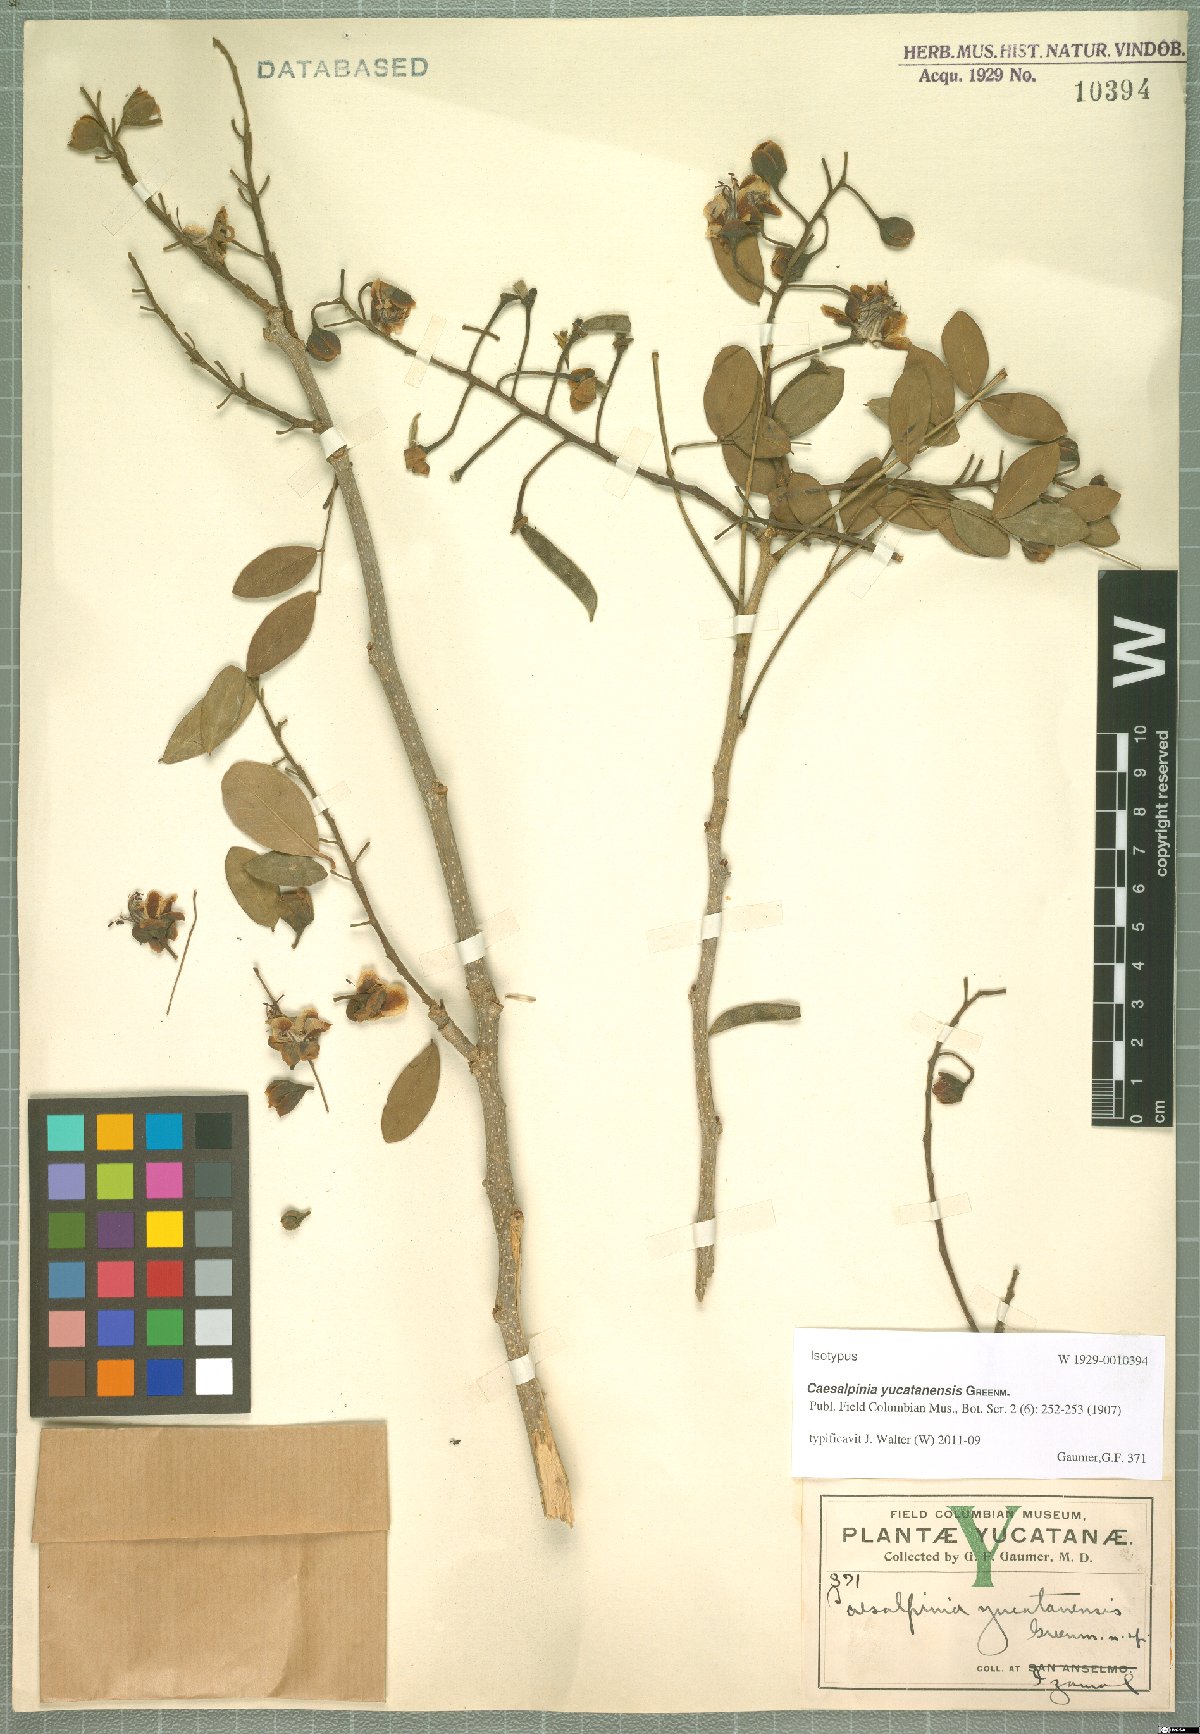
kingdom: Plantae
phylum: Tracheophyta
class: Magnoliopsida
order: Fabales
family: Fabaceae
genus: Erythrostemon
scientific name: Erythrostemon yucatanensis
